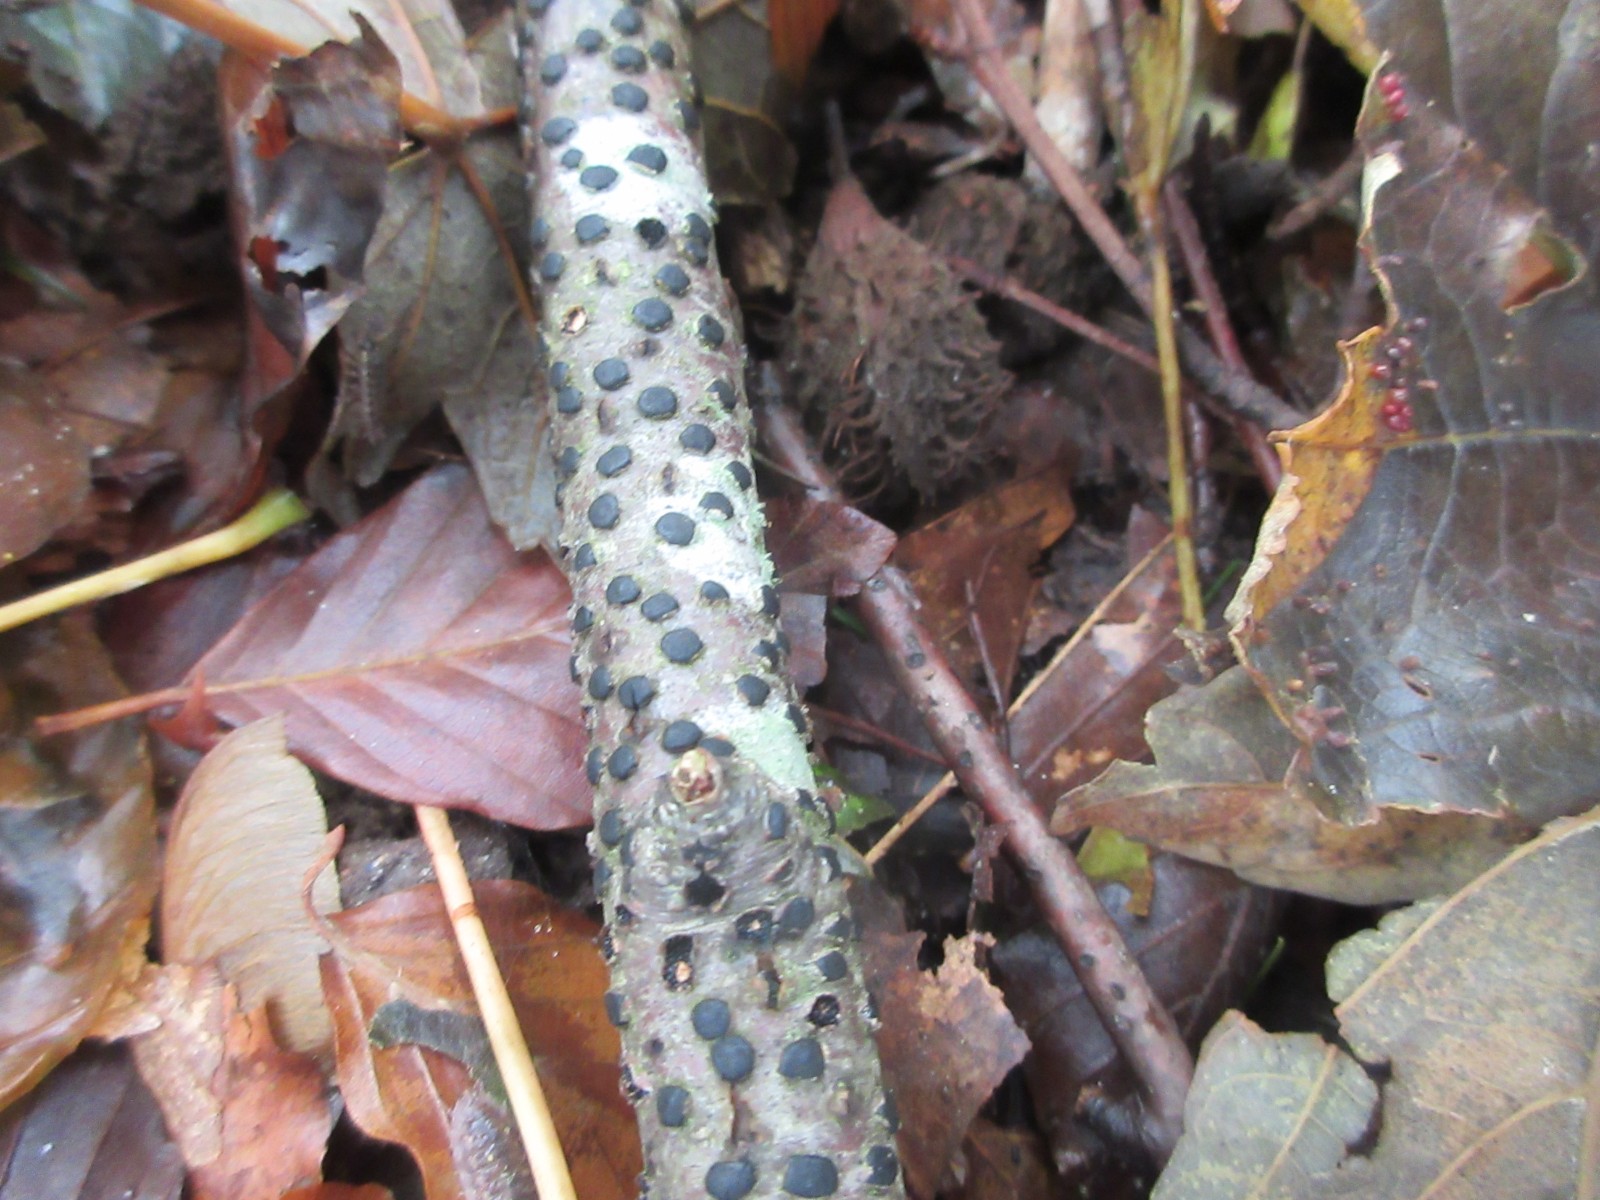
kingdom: Fungi
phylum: Ascomycota
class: Sordariomycetes
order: Xylariales
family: Diatrypaceae
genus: Diatrype
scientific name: Diatrype disciformis
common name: kant-kulskorpe
